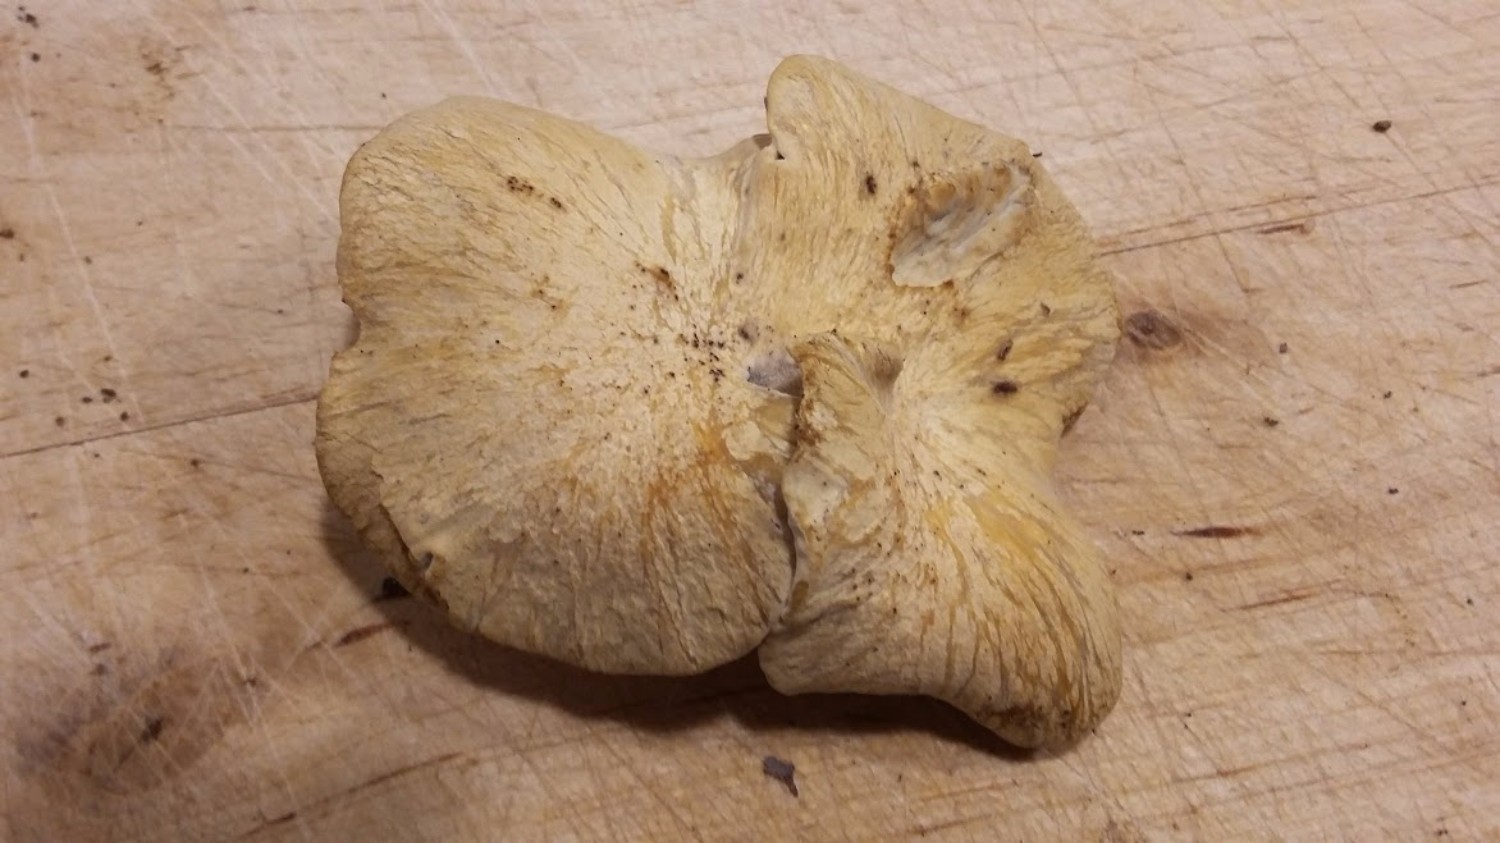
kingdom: Fungi
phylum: Basidiomycota
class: Agaricomycetes
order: Polyporales
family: Polyporaceae
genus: Cerioporus
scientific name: Cerioporus varius
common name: foranderlig stilkporesvamp
